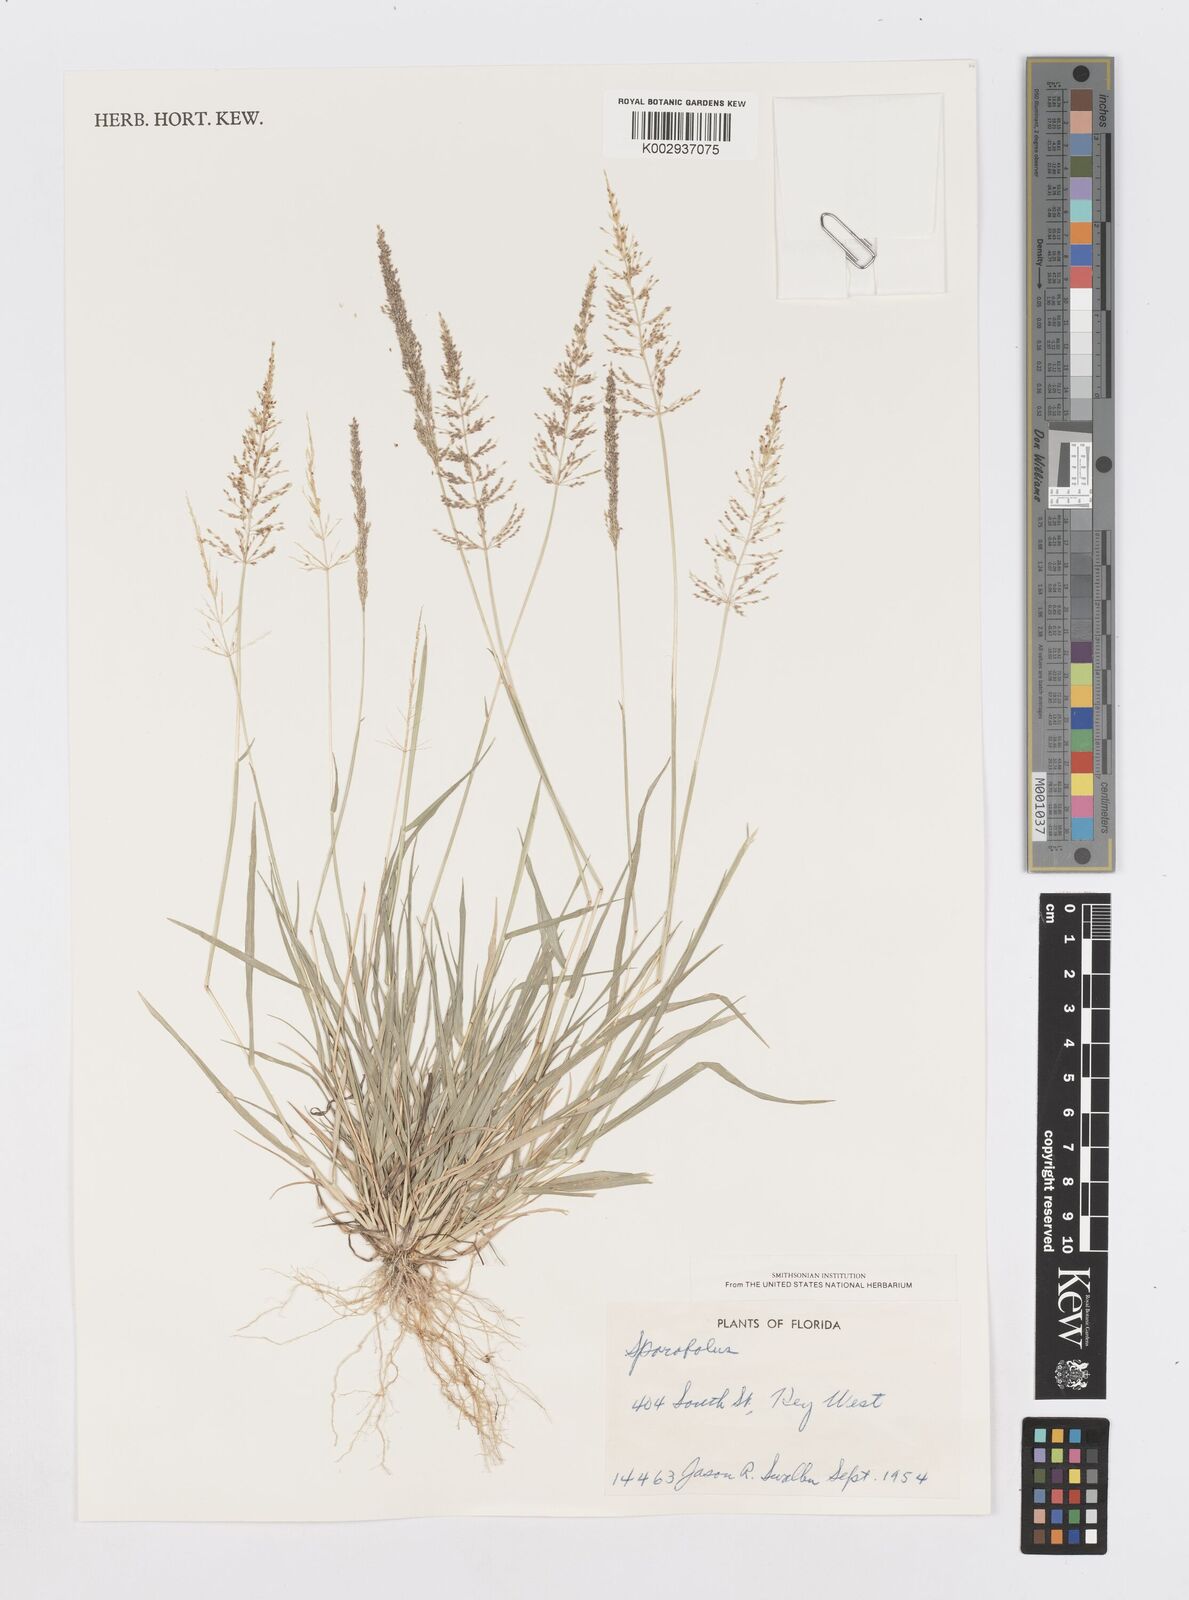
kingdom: Plantae
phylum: Tracheophyta
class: Liliopsida
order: Poales
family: Poaceae
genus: Sporobolus
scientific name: Sporobolus pyramidatus
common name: Whorled dropseed
